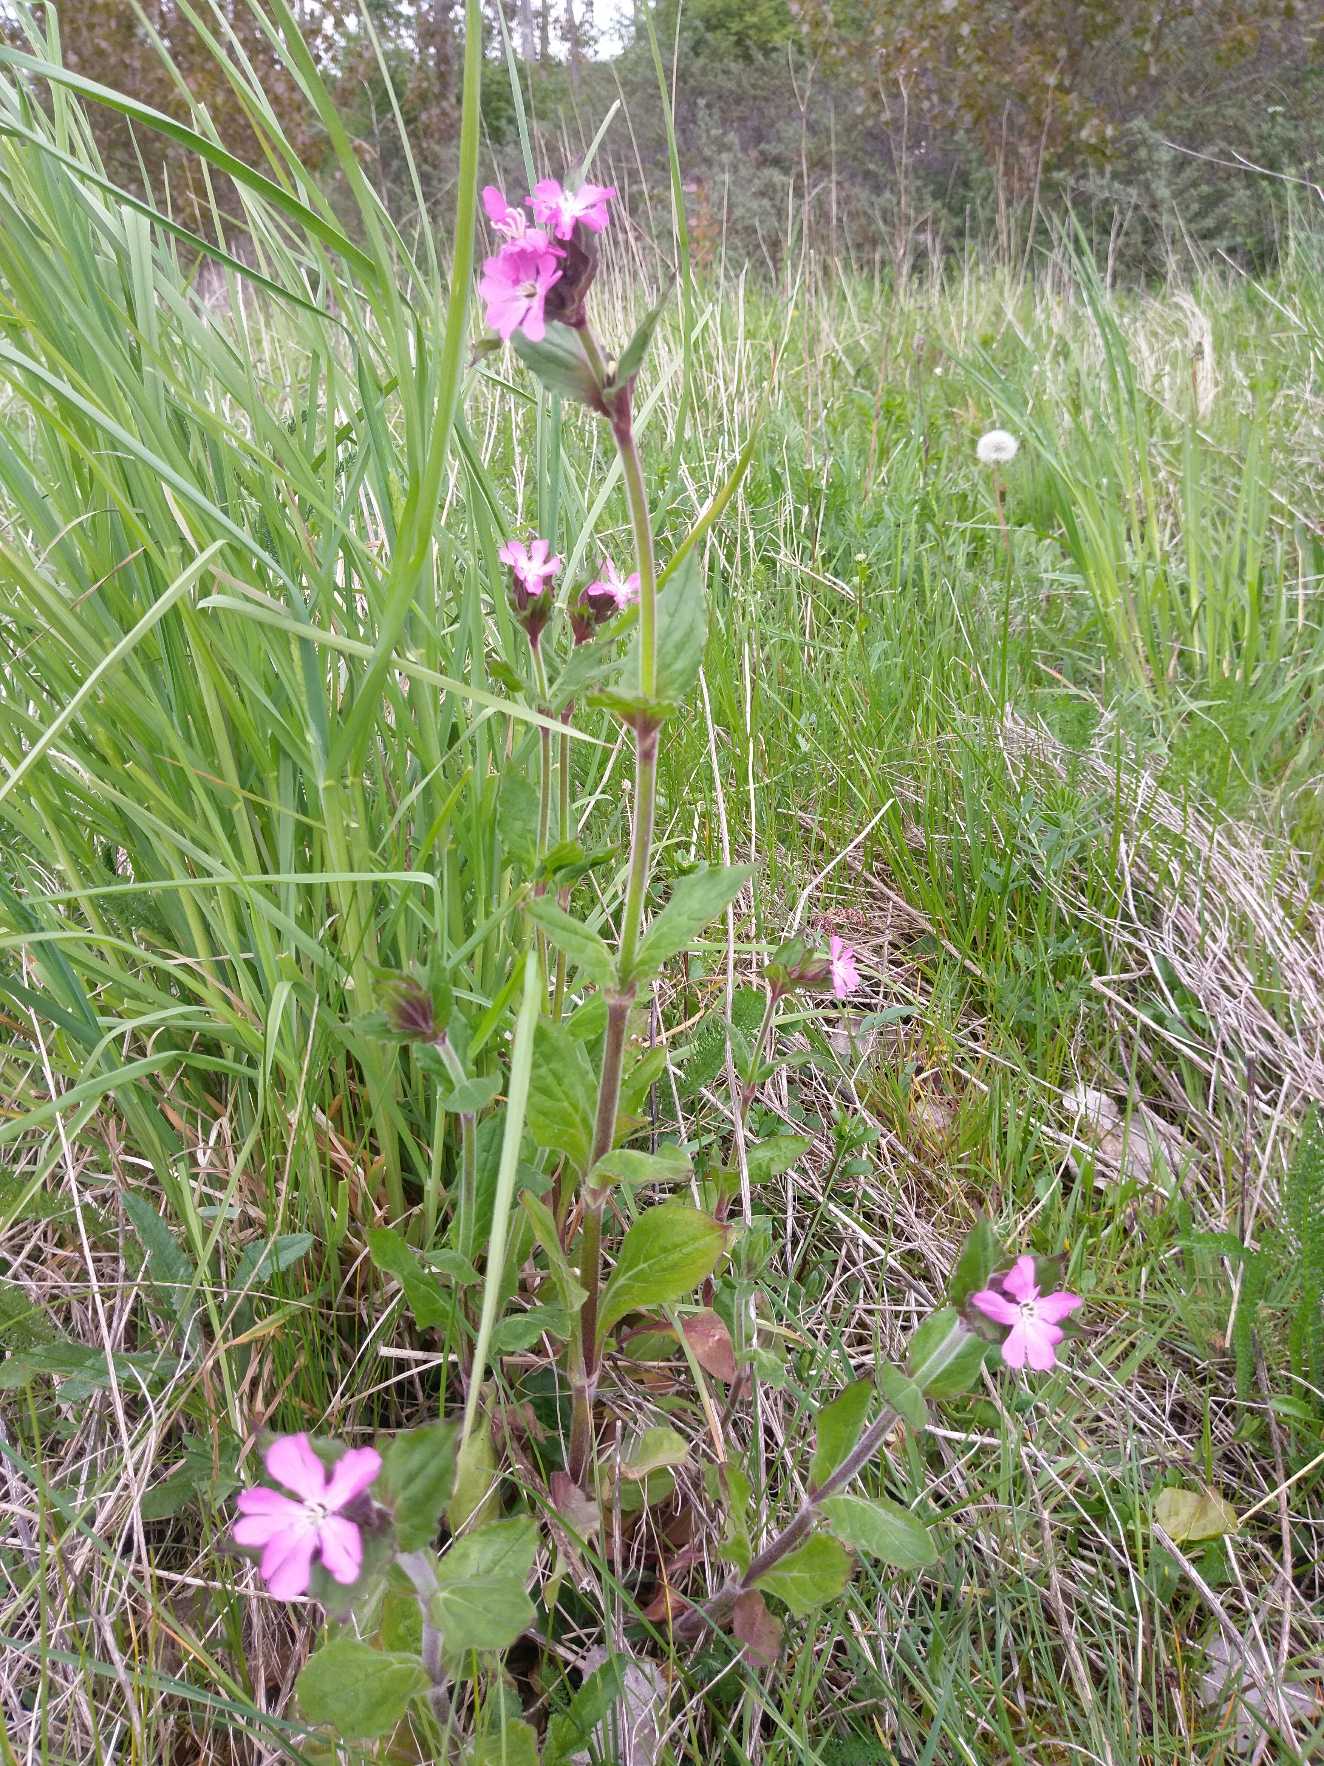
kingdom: Plantae
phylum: Tracheophyta
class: Magnoliopsida
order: Caryophyllales
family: Caryophyllaceae
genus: Silene
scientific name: Silene dioica
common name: Dagpragtstjerne
